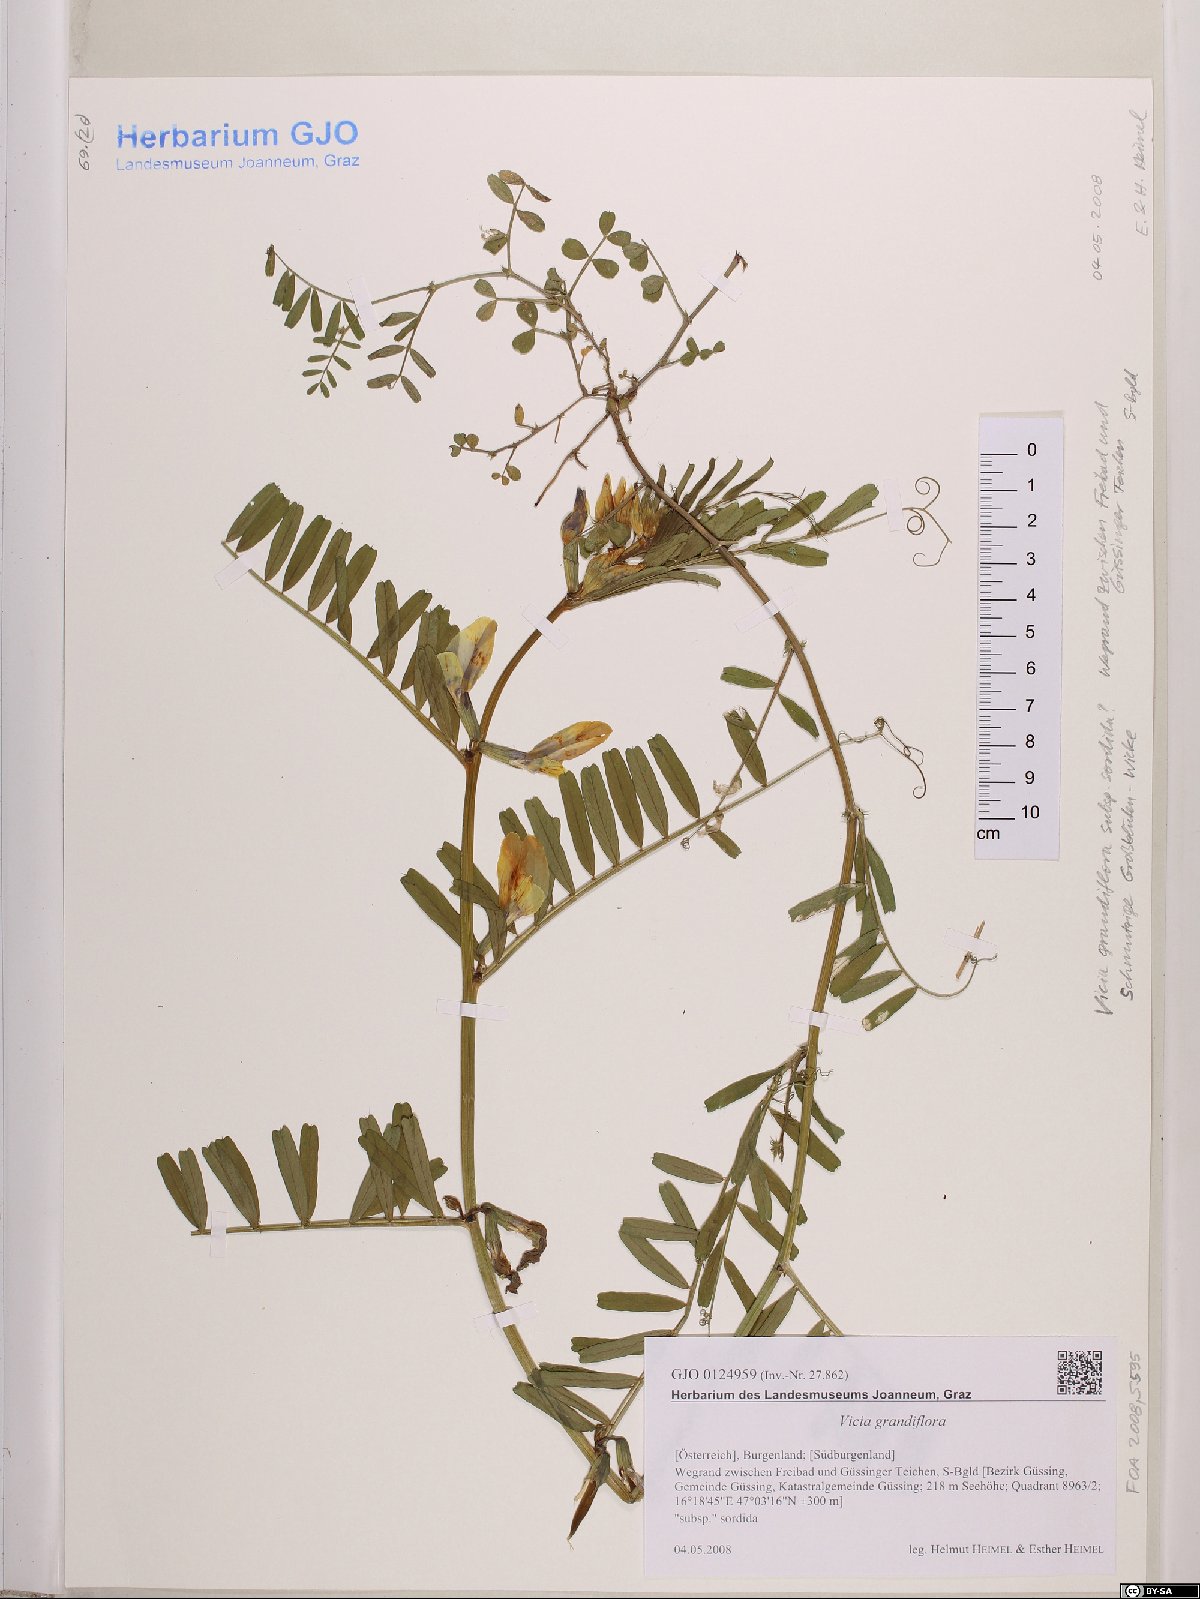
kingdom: Plantae
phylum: Tracheophyta
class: Magnoliopsida
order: Fabales
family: Fabaceae
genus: Vicia
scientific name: Vicia grandiflora
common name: Large yellow vetch
